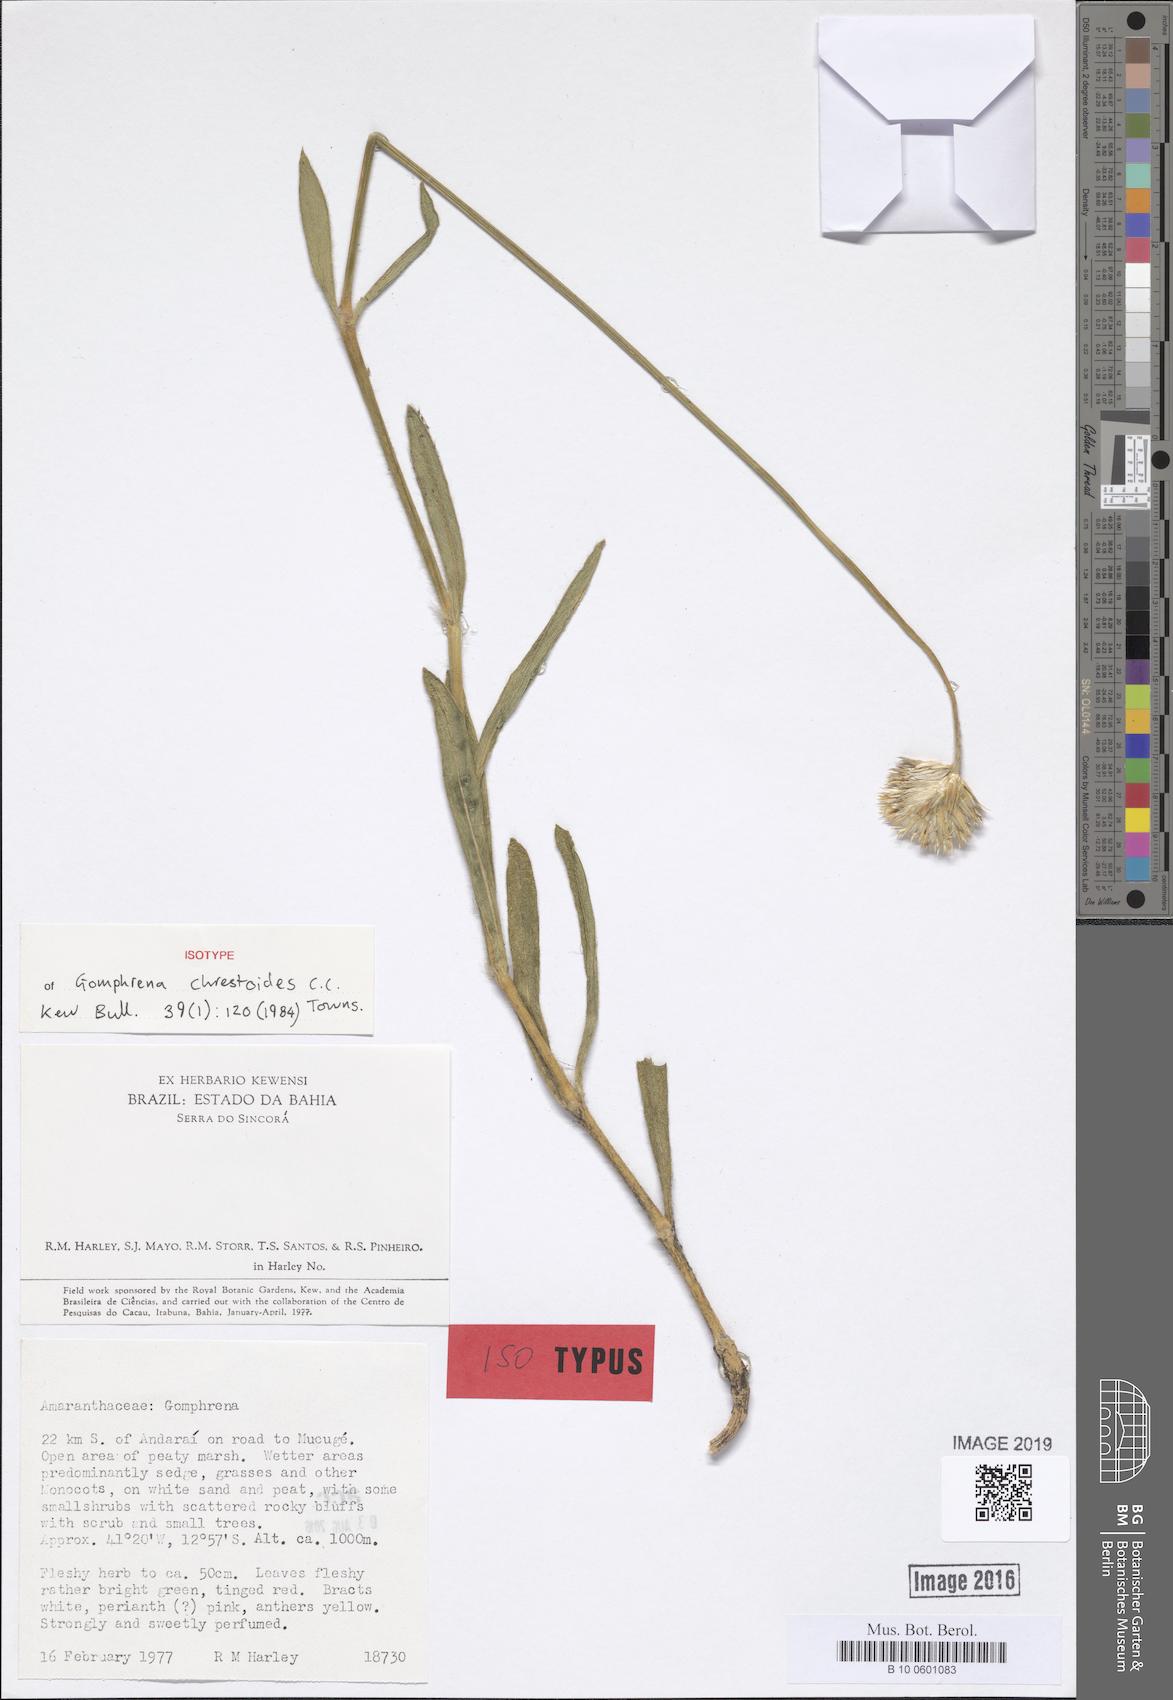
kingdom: Plantae
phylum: Tracheophyta
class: Magnoliopsida
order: Caryophyllales
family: Amaranthaceae
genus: Gomphrena
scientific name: Gomphrena chrestoides
